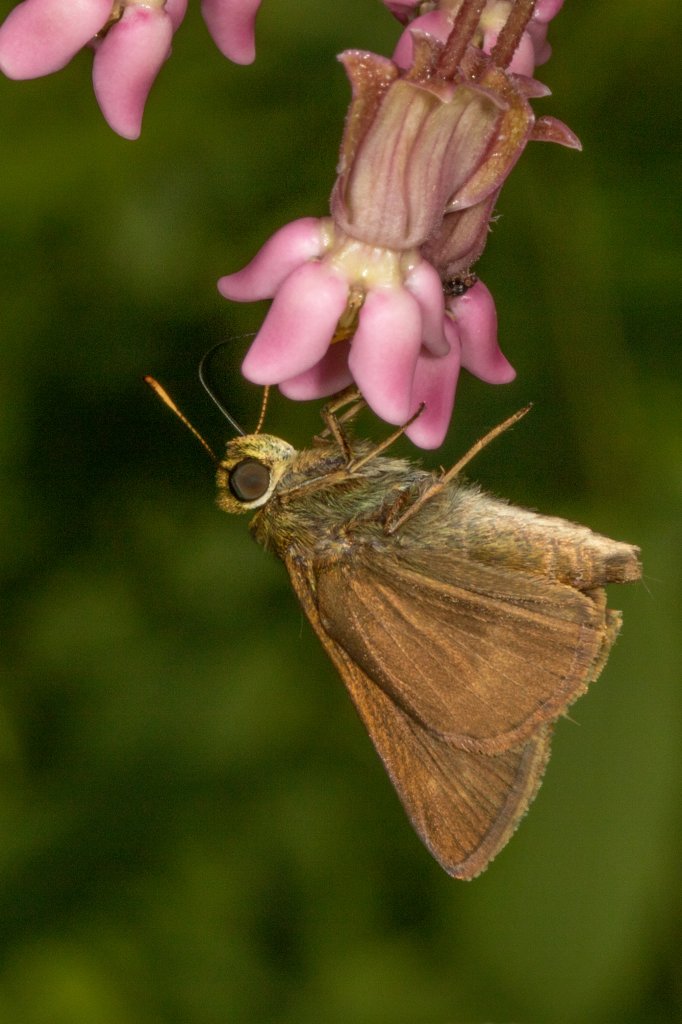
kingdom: Animalia
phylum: Arthropoda
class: Insecta
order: Lepidoptera
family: Hesperiidae
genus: Euphyes
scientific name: Euphyes vestris
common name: Dun Skipper
